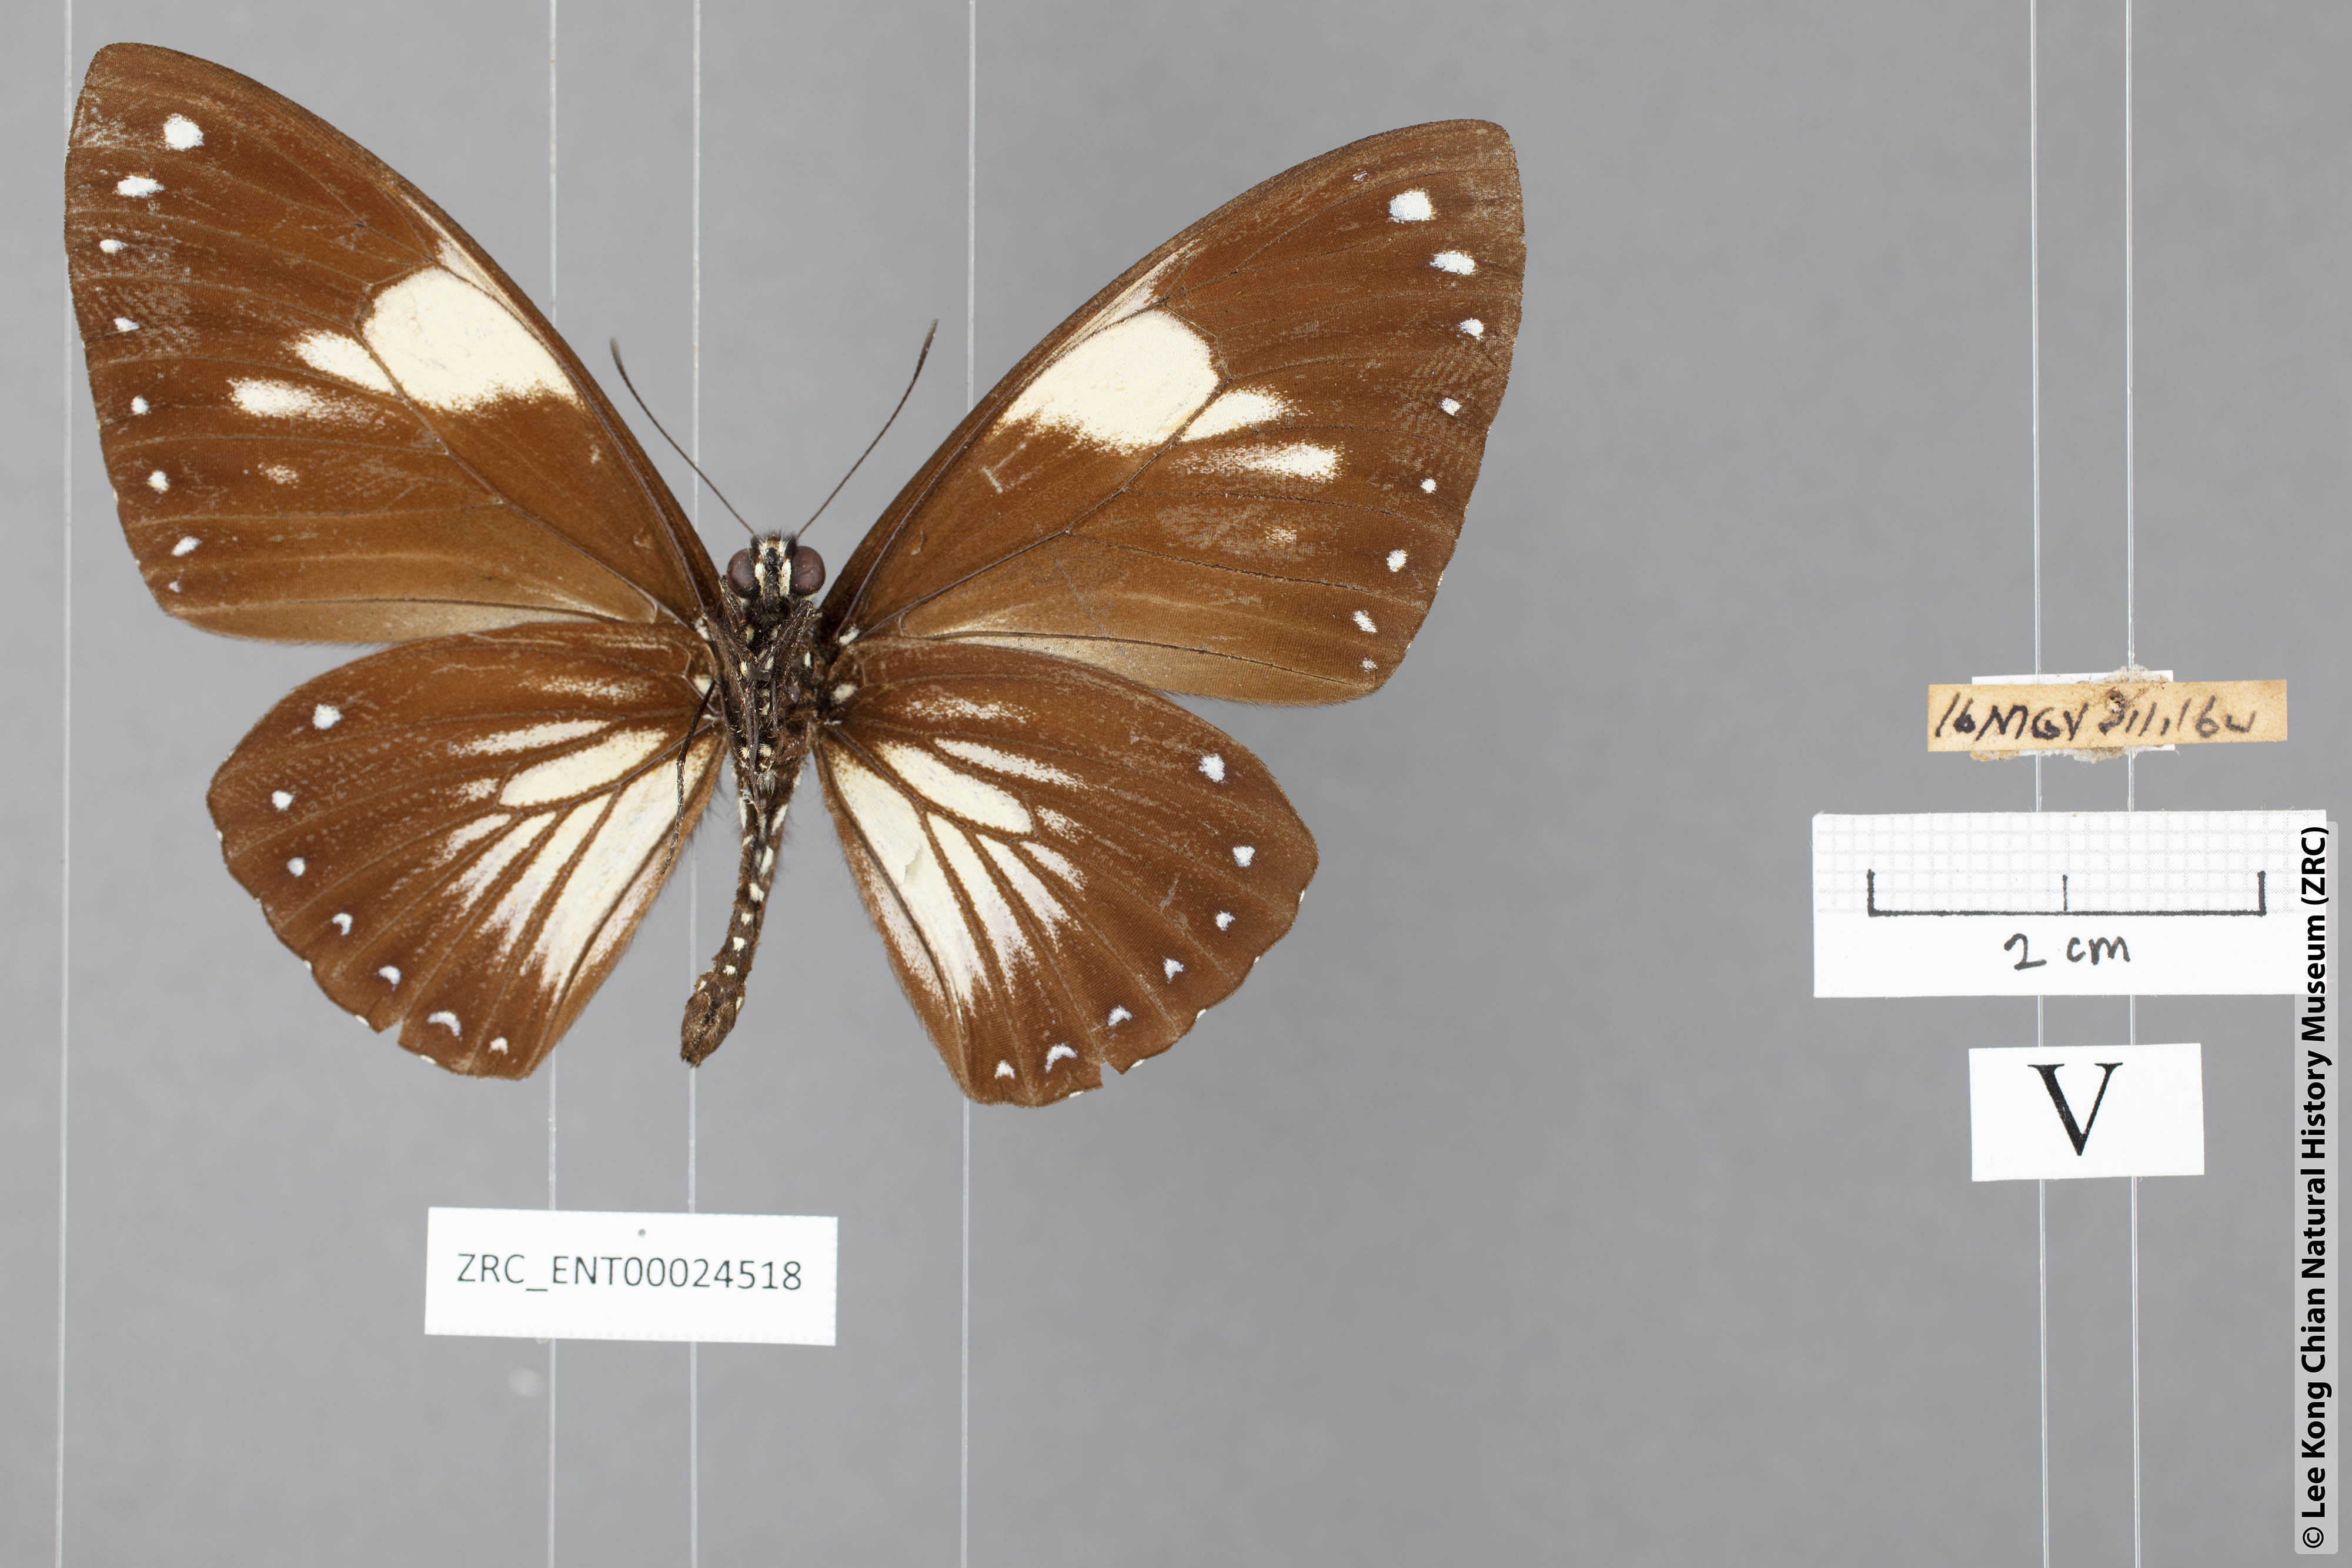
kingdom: Animalia
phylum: Arthropoda
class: Insecta
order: Lepidoptera
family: Papilionidae
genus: Chilasa
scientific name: Chilasa paradoxa
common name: Great mime
